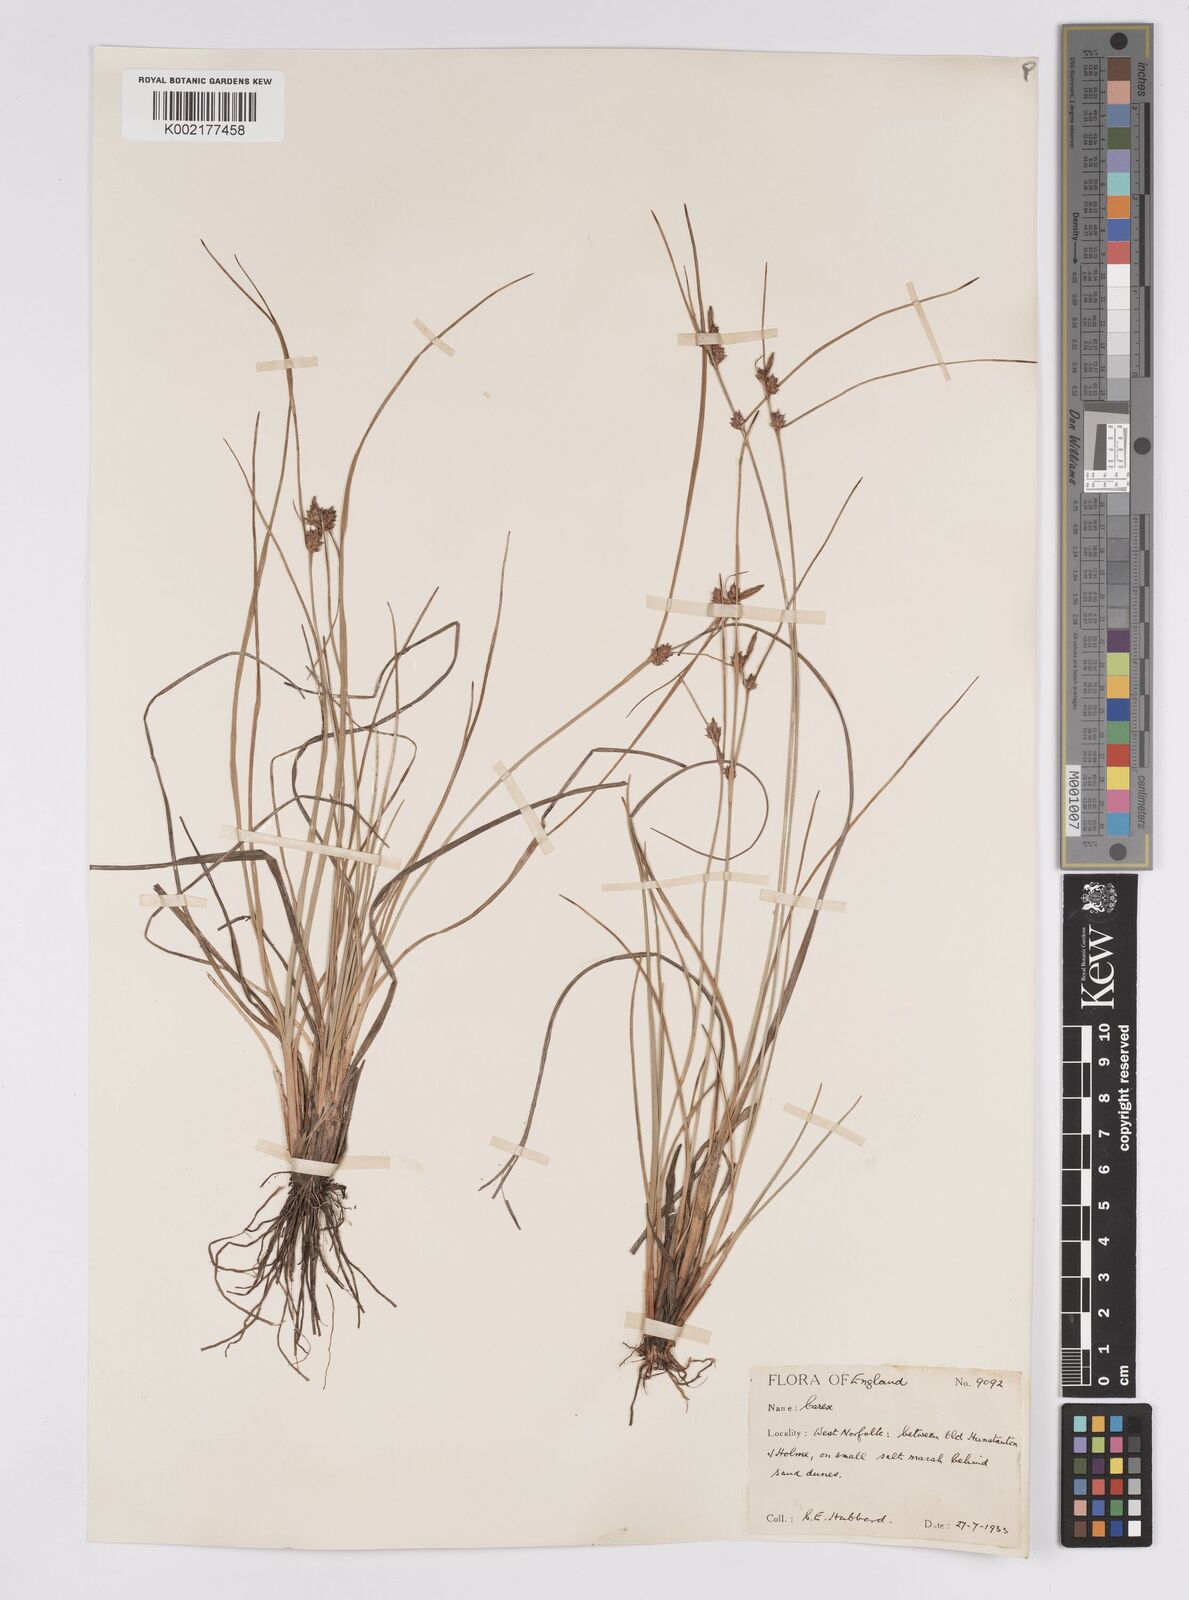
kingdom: Plantae
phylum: Tracheophyta
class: Liliopsida
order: Poales
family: Cyperaceae
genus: Carex
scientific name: Carex extensa
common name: Long-bracted sedge
